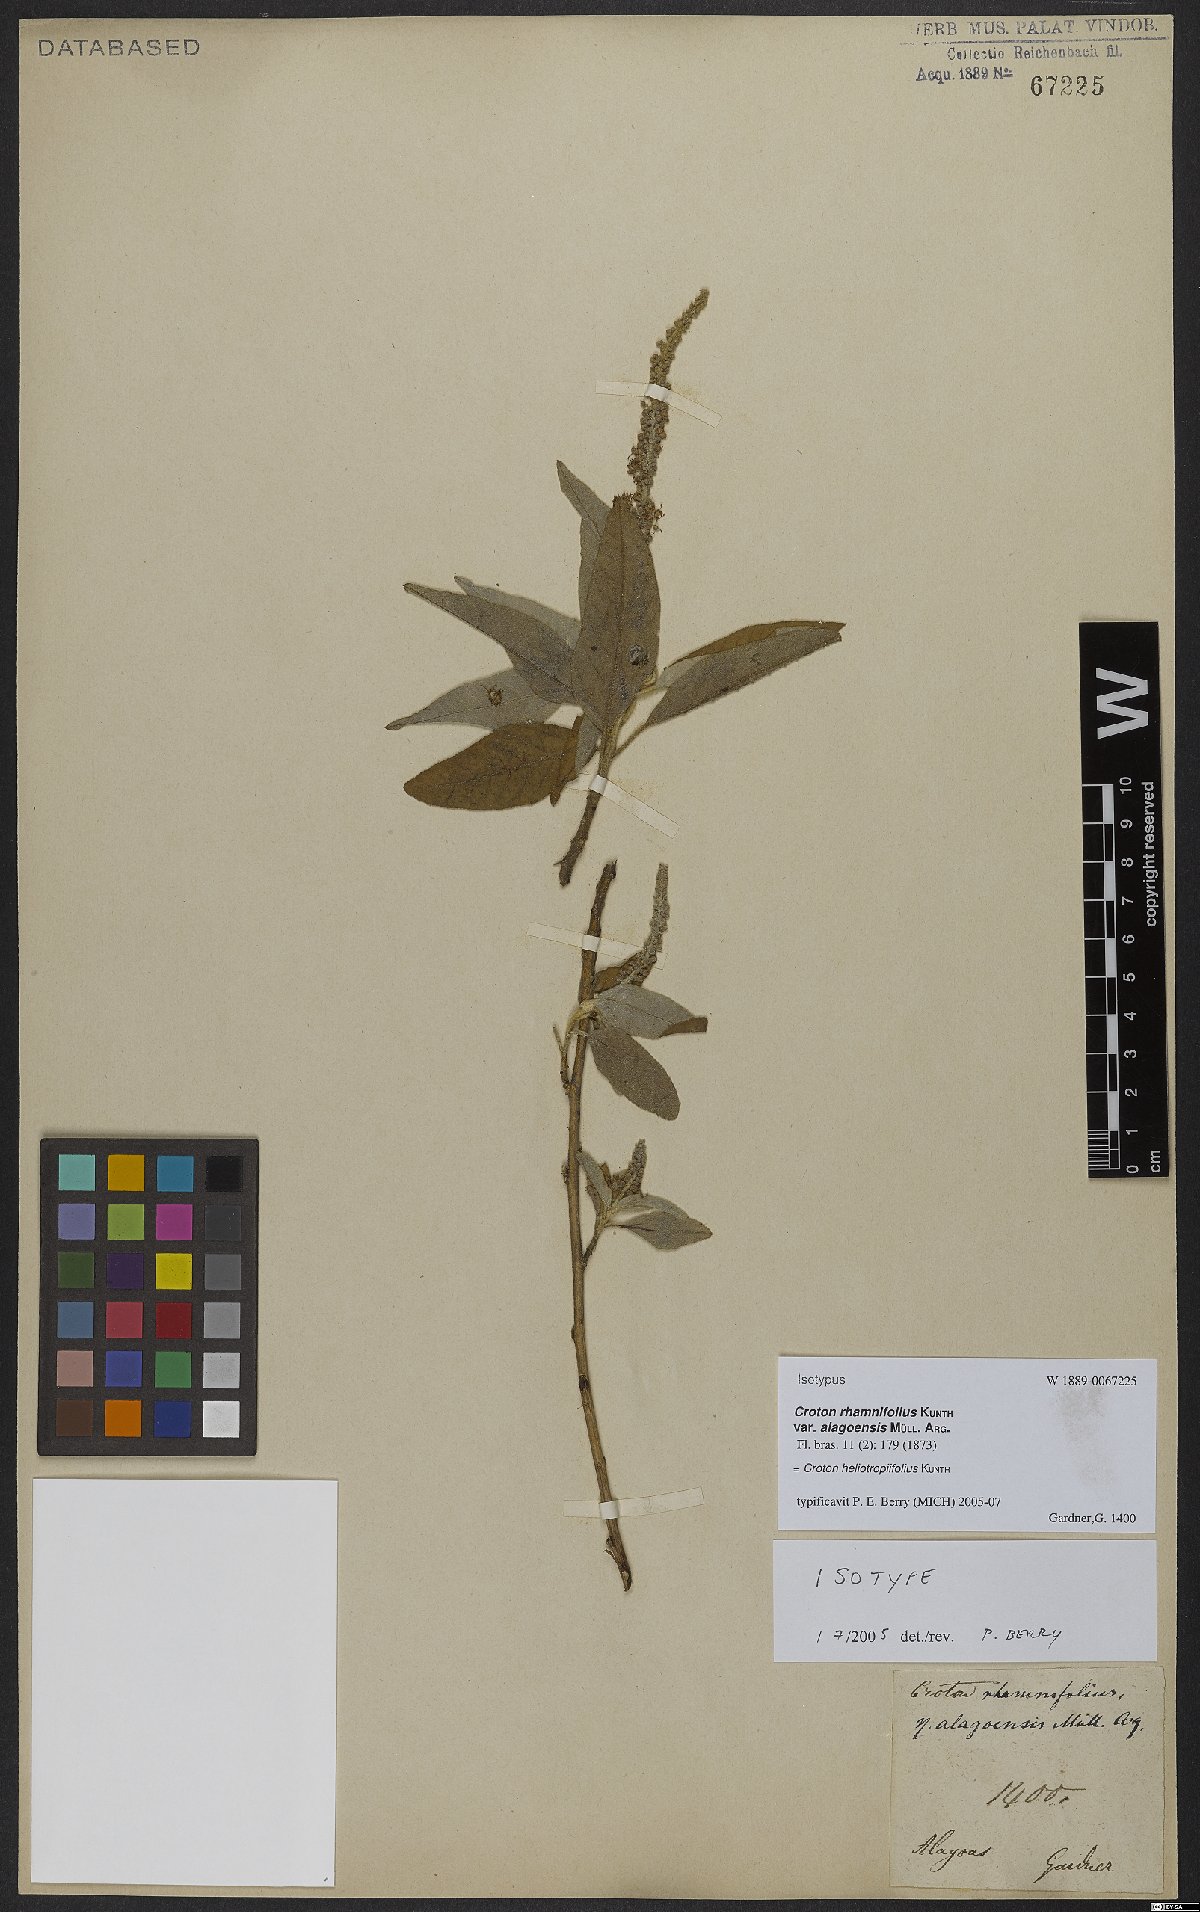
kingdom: Plantae
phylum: Tracheophyta
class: Magnoliopsida
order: Malpighiales
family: Euphorbiaceae
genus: Croton
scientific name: Croton heliotropiifolius
